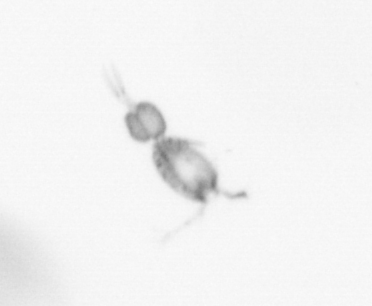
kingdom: Animalia
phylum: Arthropoda
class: Copepoda
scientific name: Copepoda
